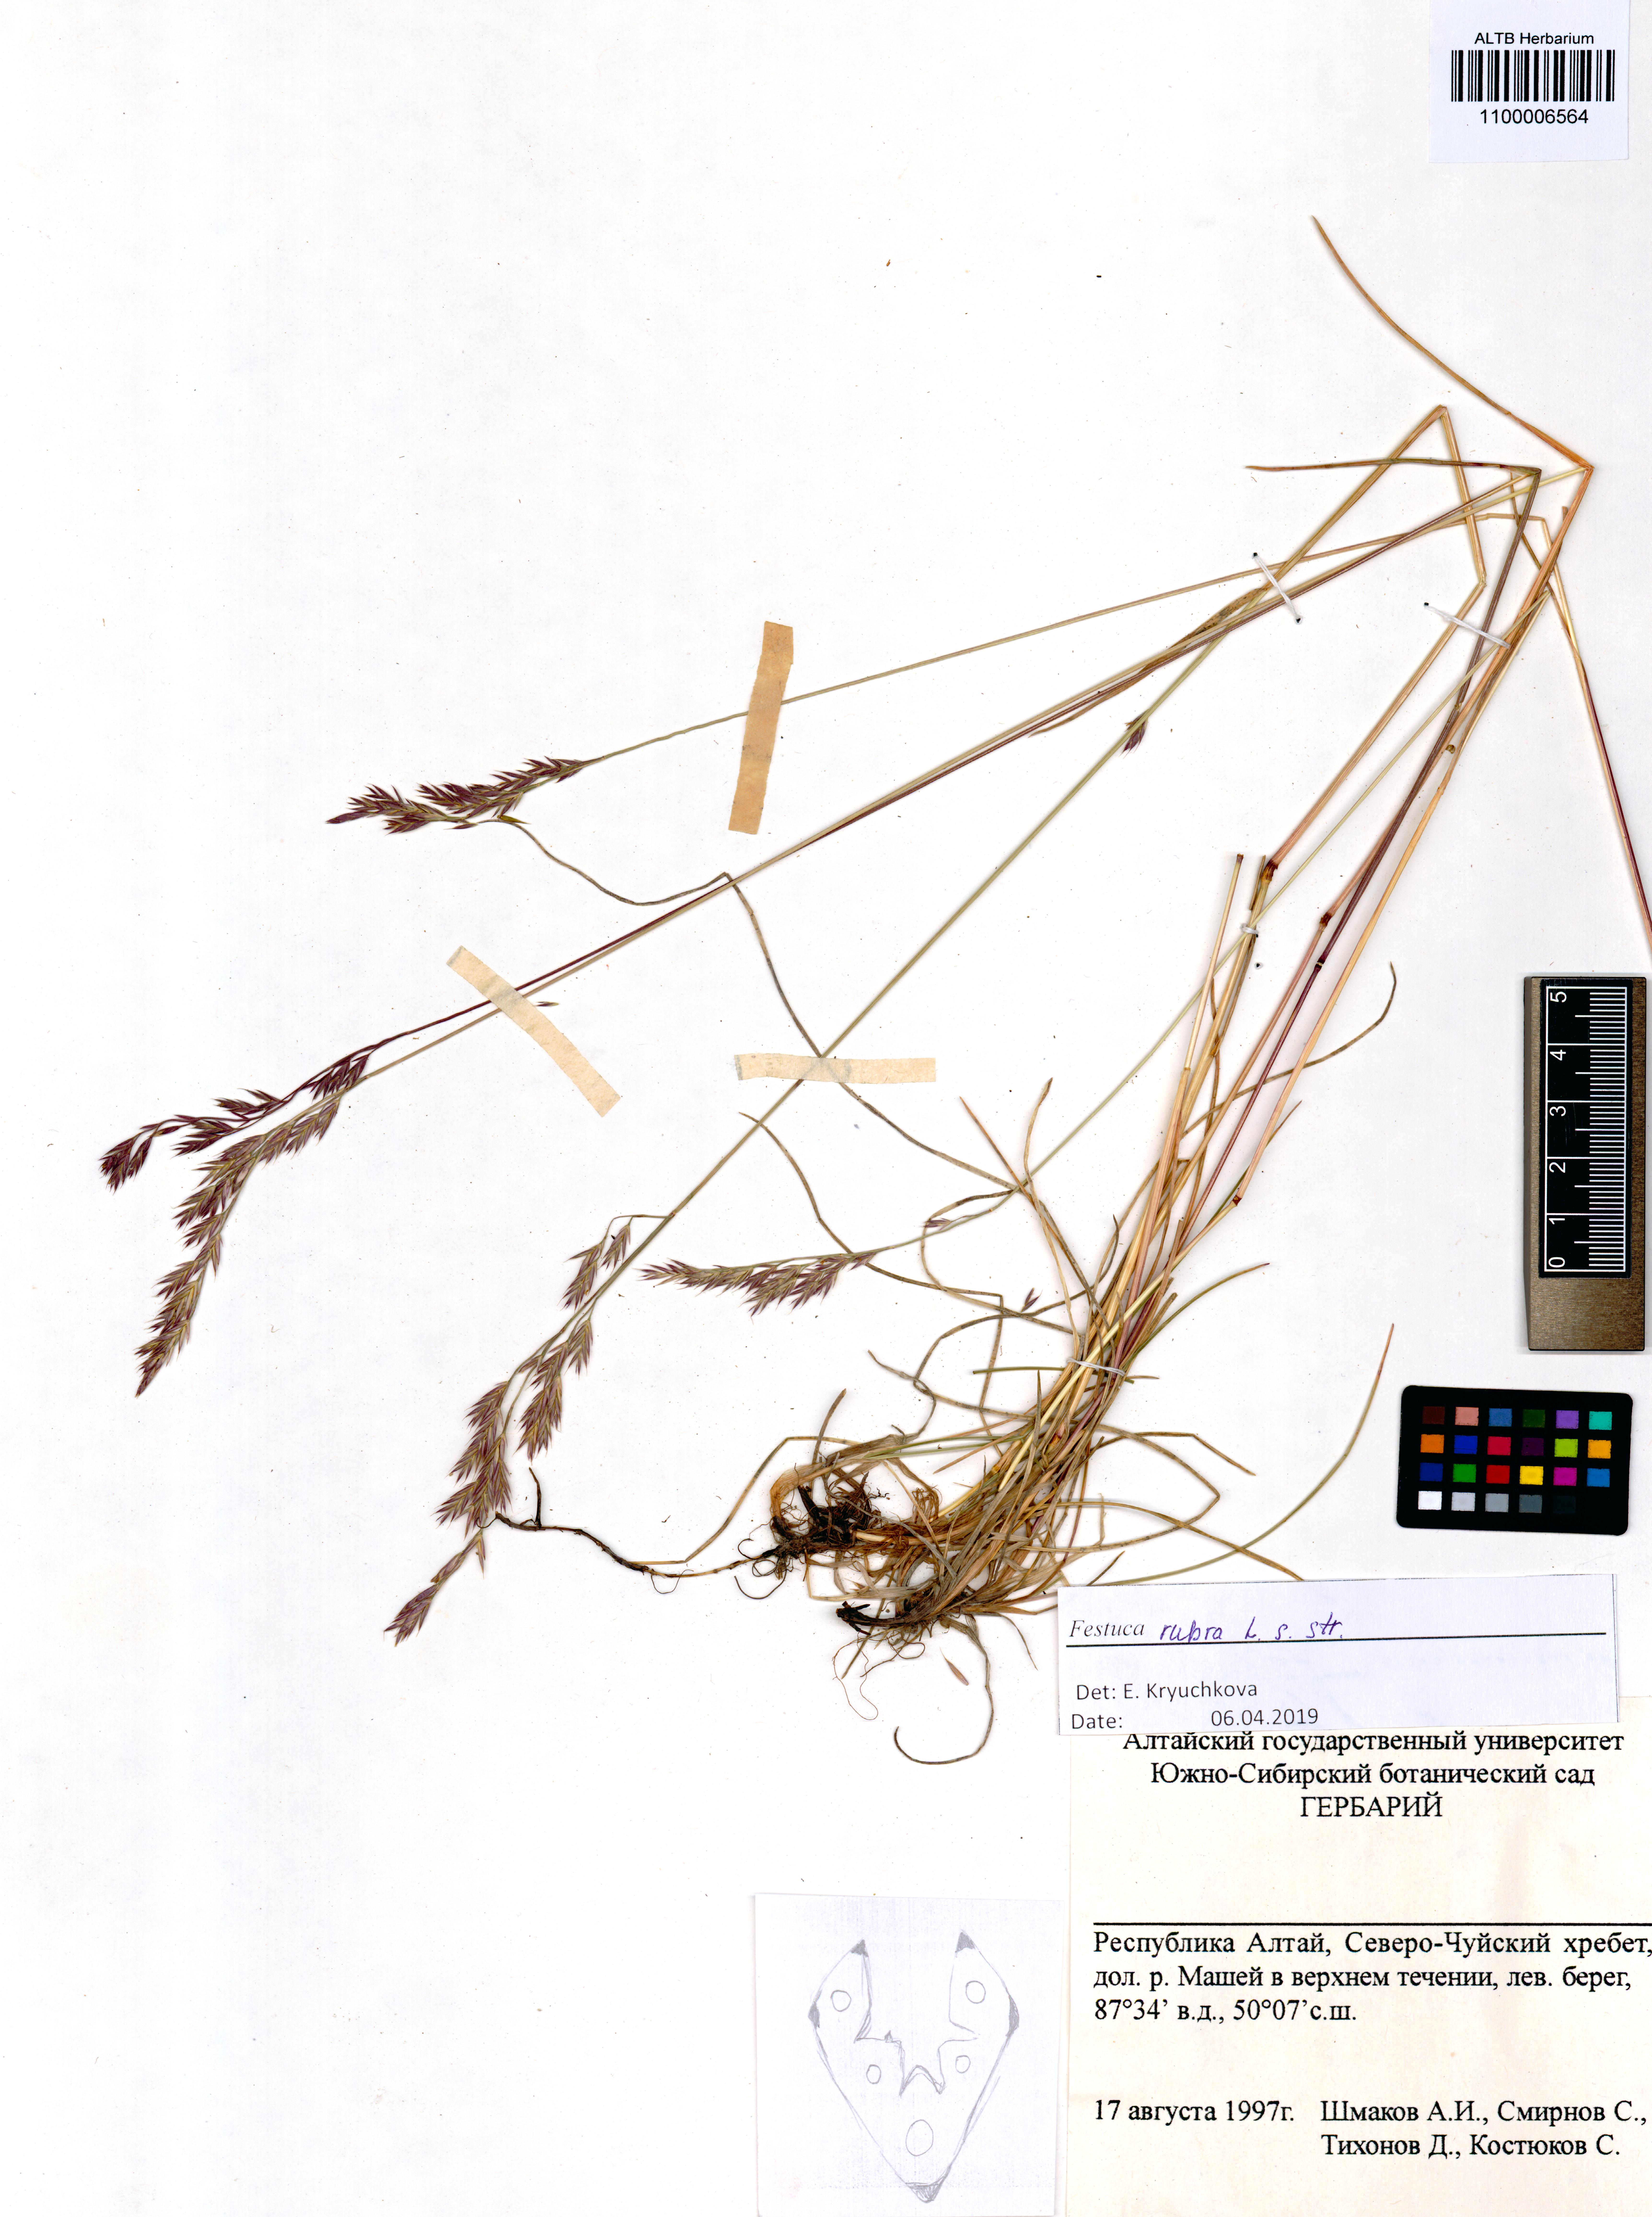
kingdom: Plantae
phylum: Tracheophyta
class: Liliopsida
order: Poales
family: Poaceae
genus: Festuca
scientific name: Festuca rubra
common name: Red fescue
